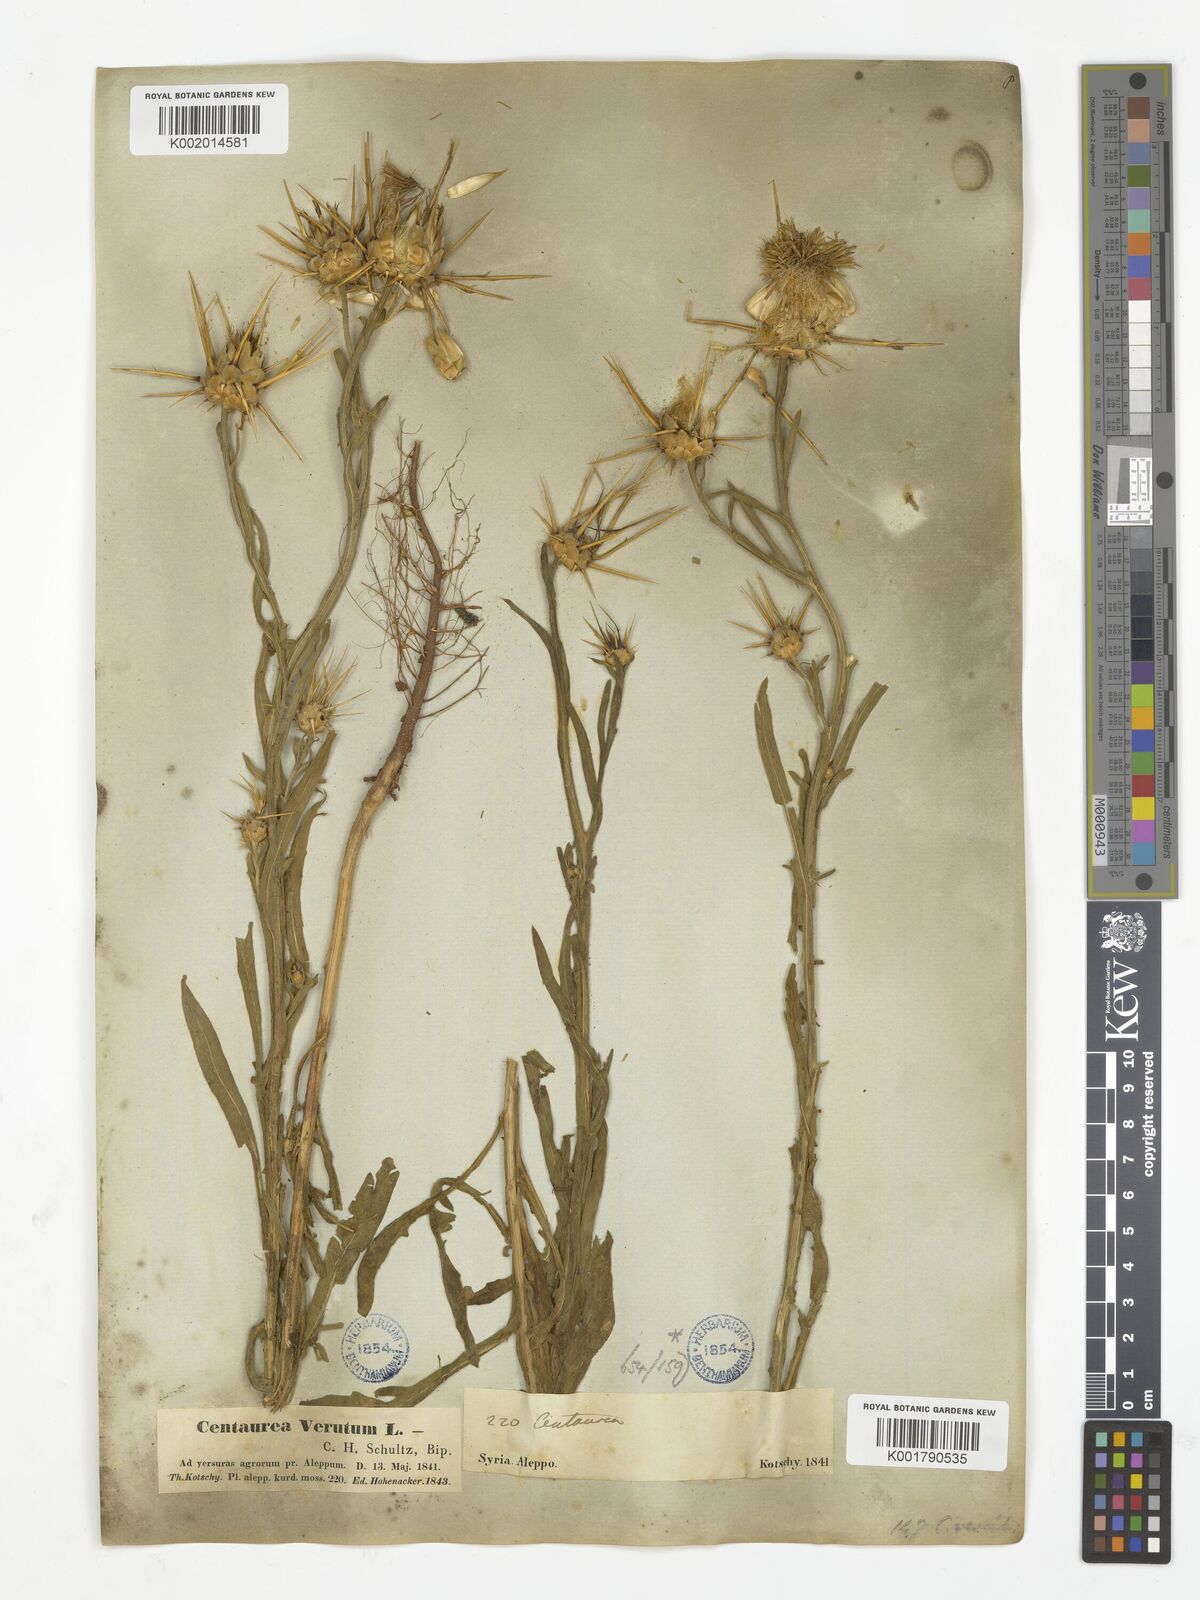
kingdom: Plantae
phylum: Tracheophyta
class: Magnoliopsida
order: Asterales
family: Asteraceae
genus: Centaurea
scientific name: Centaurea
